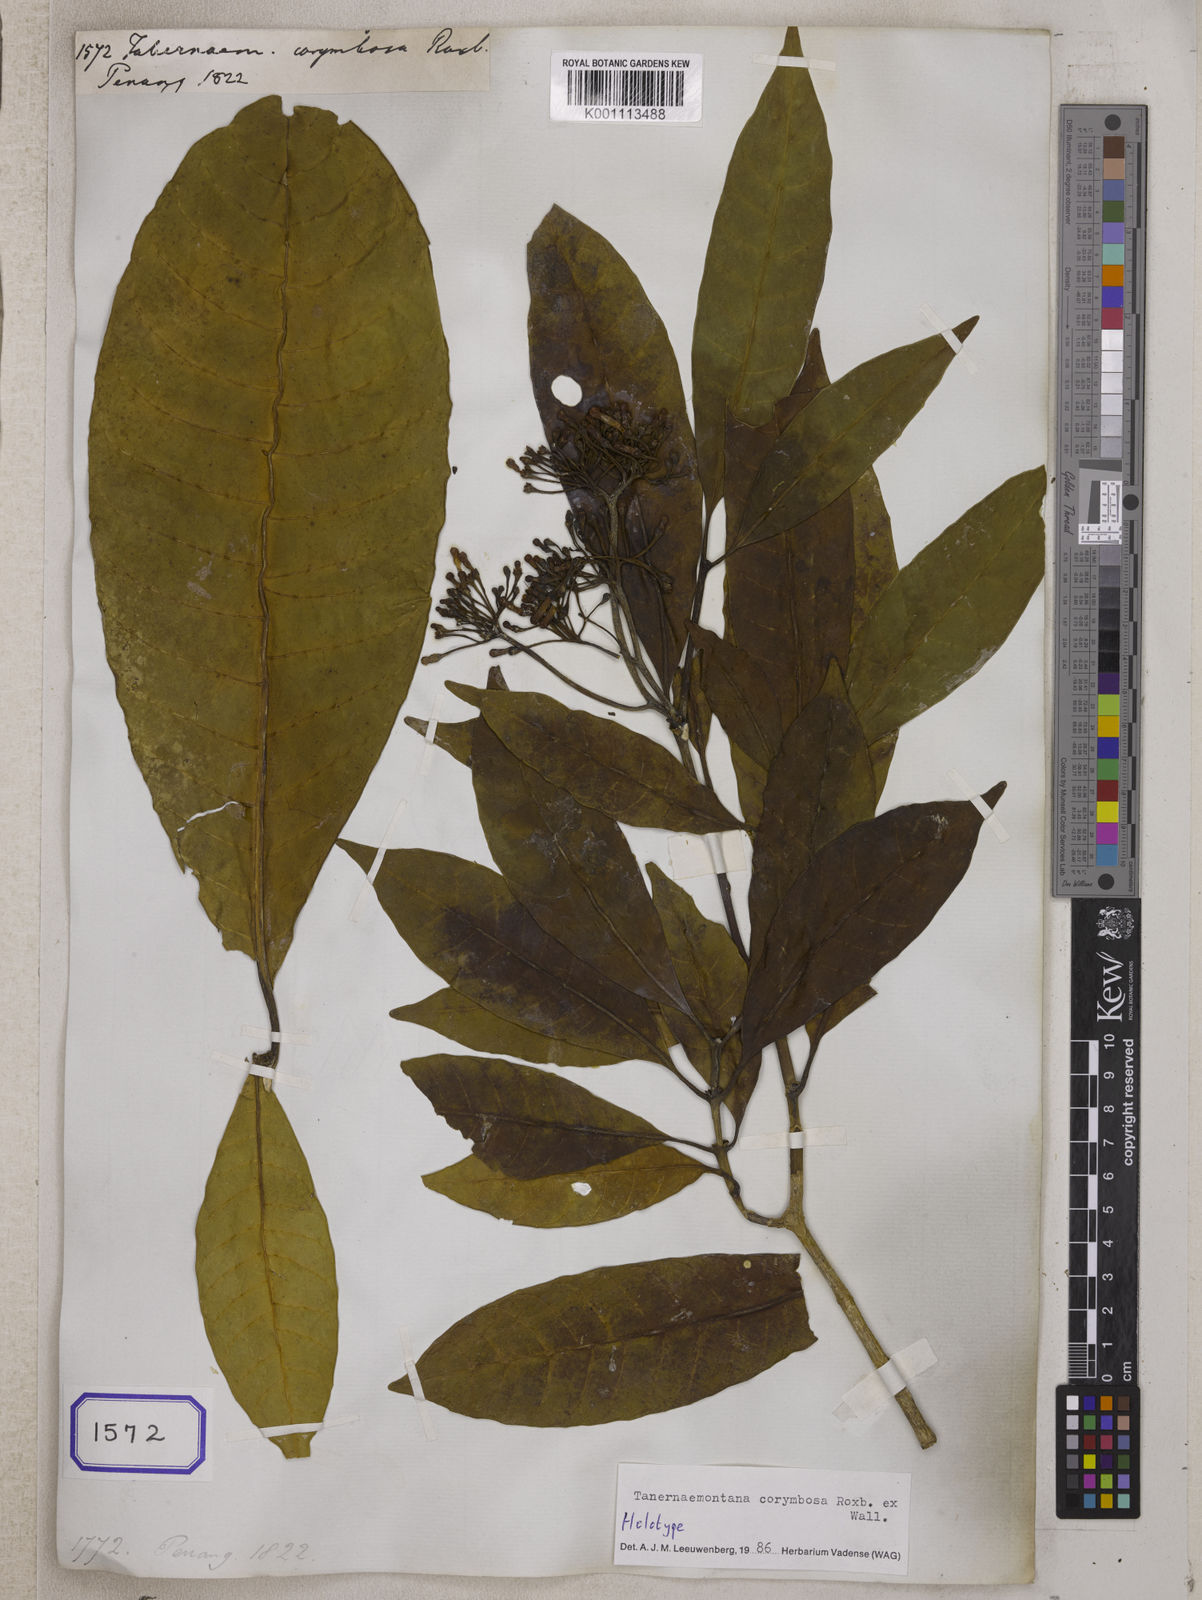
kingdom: Plantae
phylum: Tracheophyta
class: Magnoliopsida
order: Gentianales
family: Apocynaceae
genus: Tabernaemontana
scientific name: Tabernaemontana
